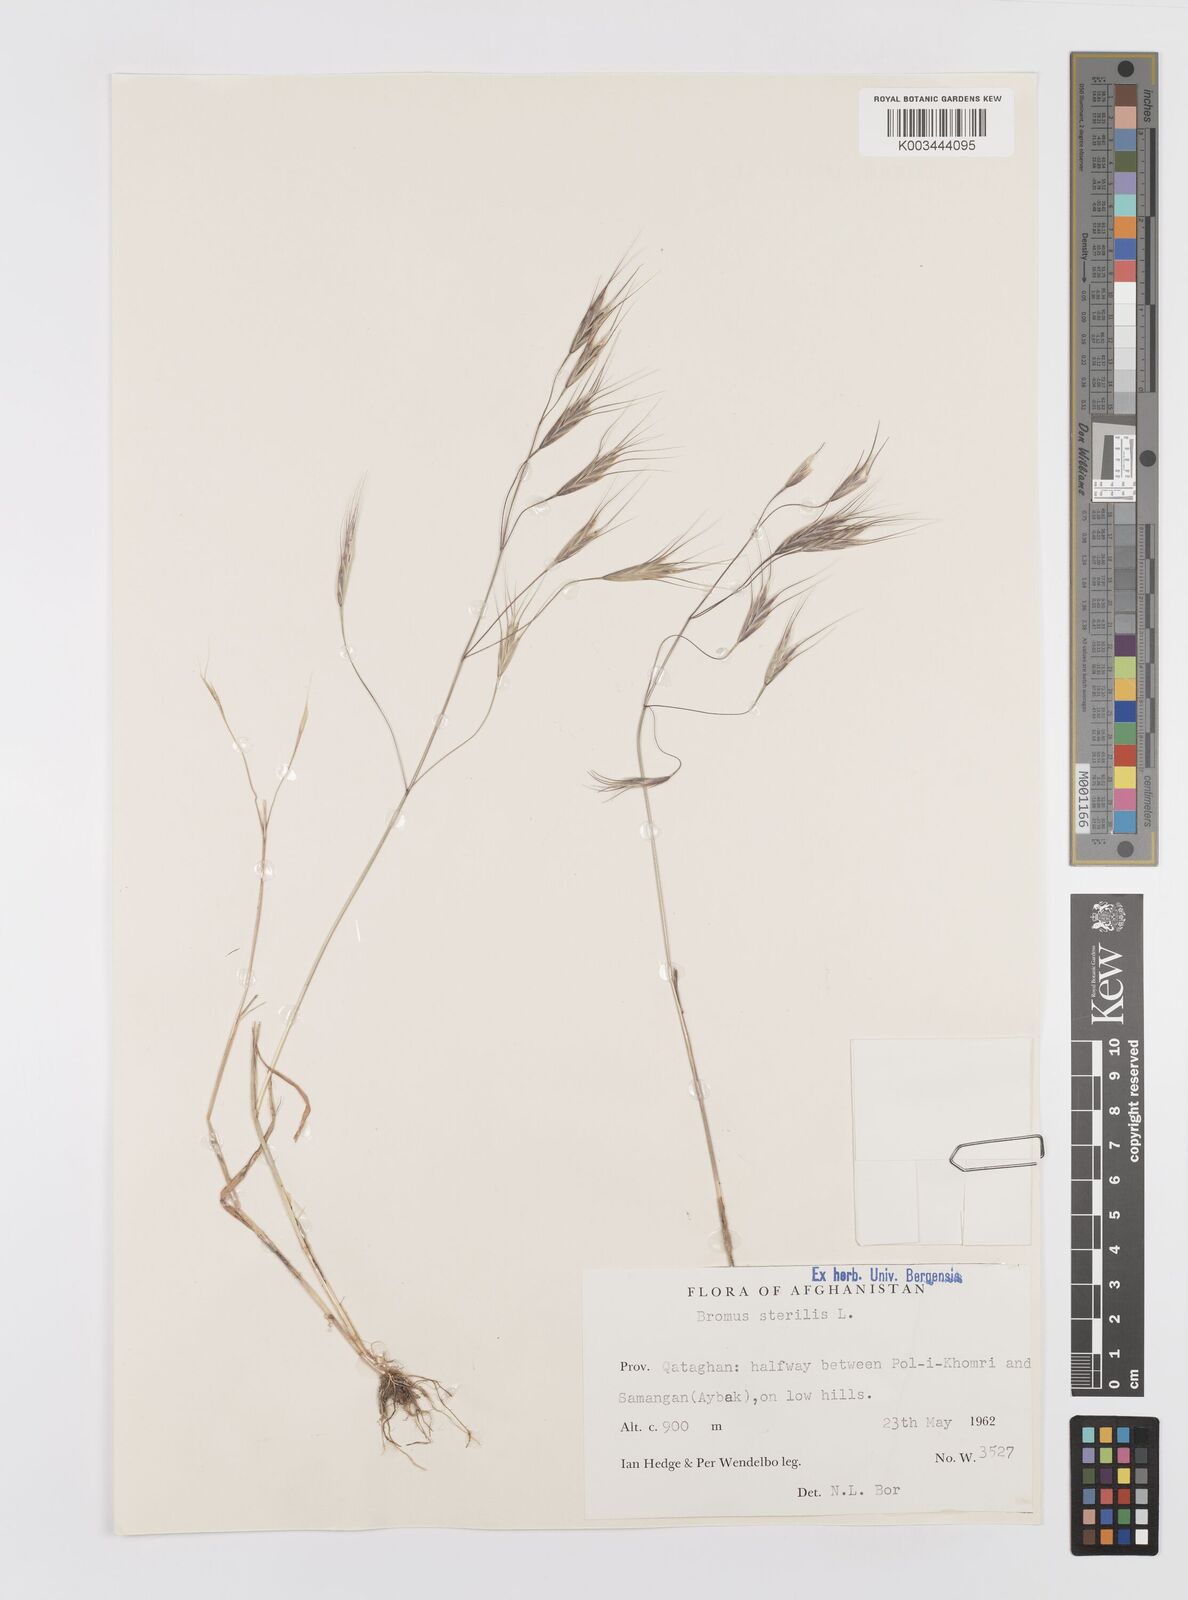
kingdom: Plantae
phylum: Tracheophyta
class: Liliopsida
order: Poales
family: Poaceae
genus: Bromus
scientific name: Bromus sterilis
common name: Poverty brome
